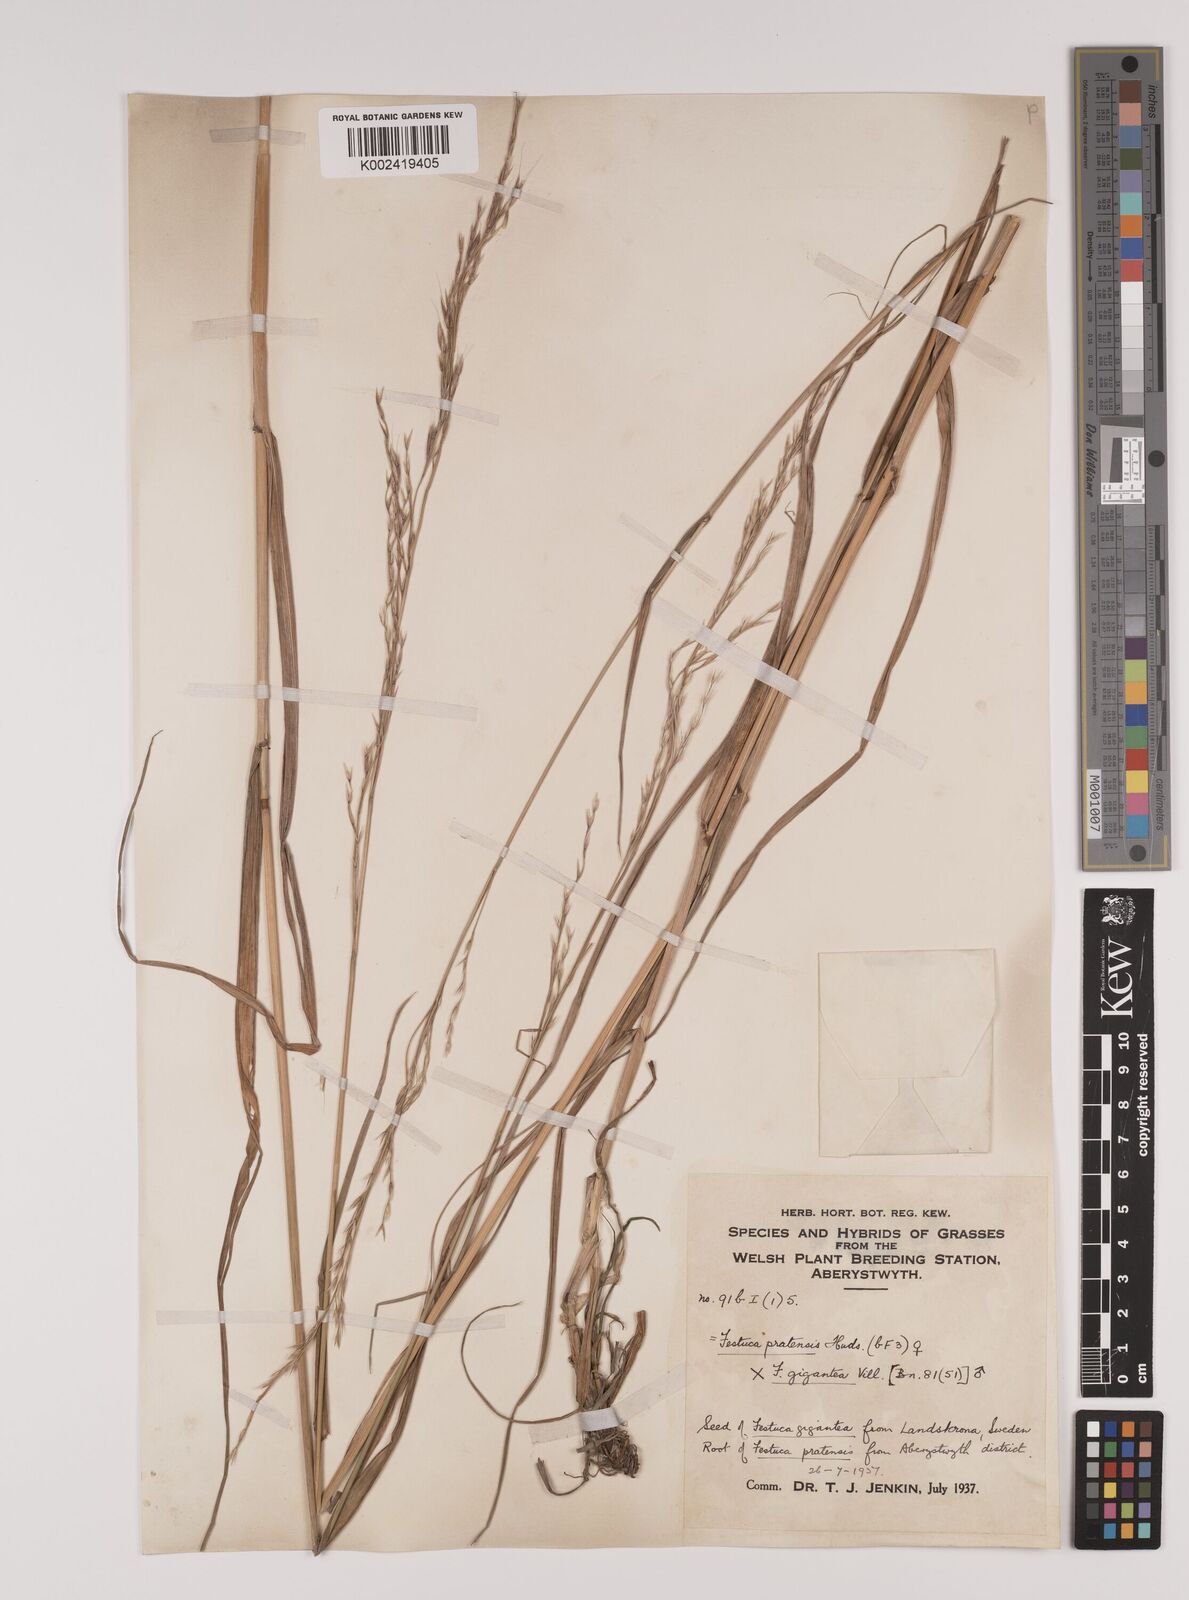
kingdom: Plantae
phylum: Tracheophyta
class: Liliopsida
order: Poales
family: Poaceae
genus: Lolium
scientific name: Lolium giganteum
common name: Giant fescue
